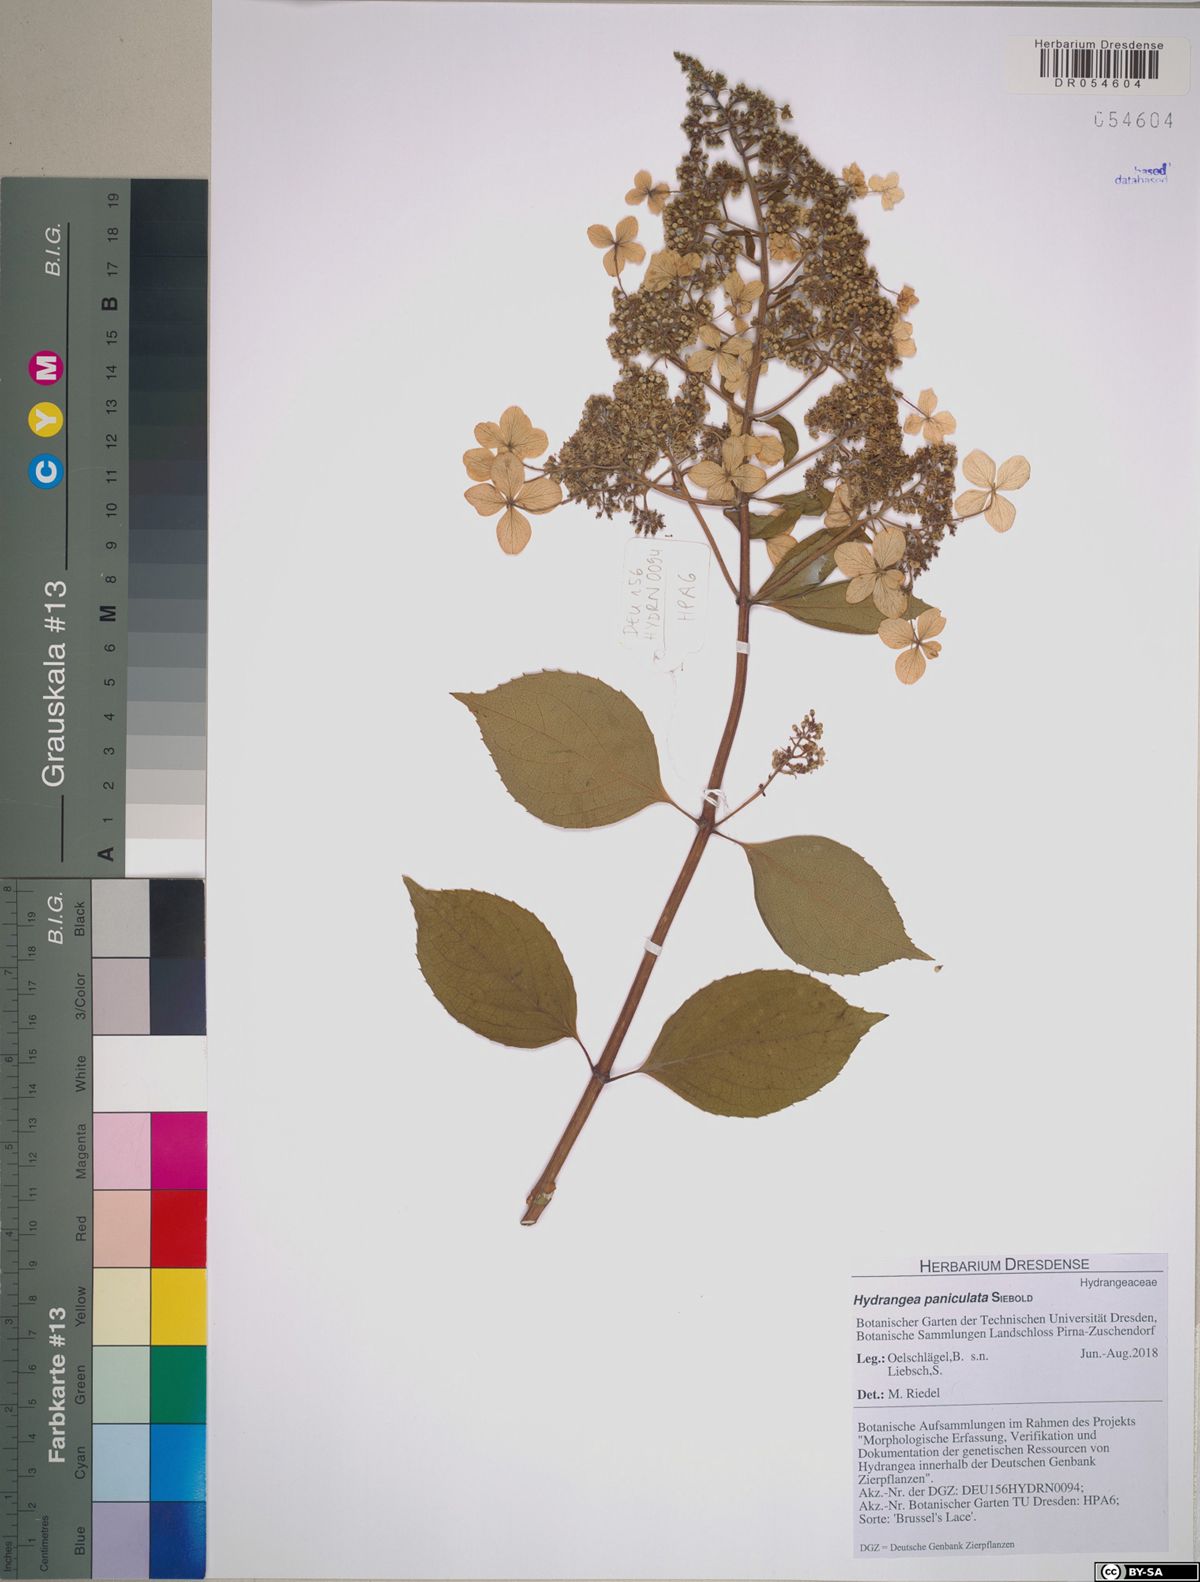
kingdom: Plantae
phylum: Tracheophyta
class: Magnoliopsida
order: Cornales
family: Hydrangeaceae
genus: Hydrangea
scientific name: Hydrangea paniculata
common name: Panicled hydrangea
